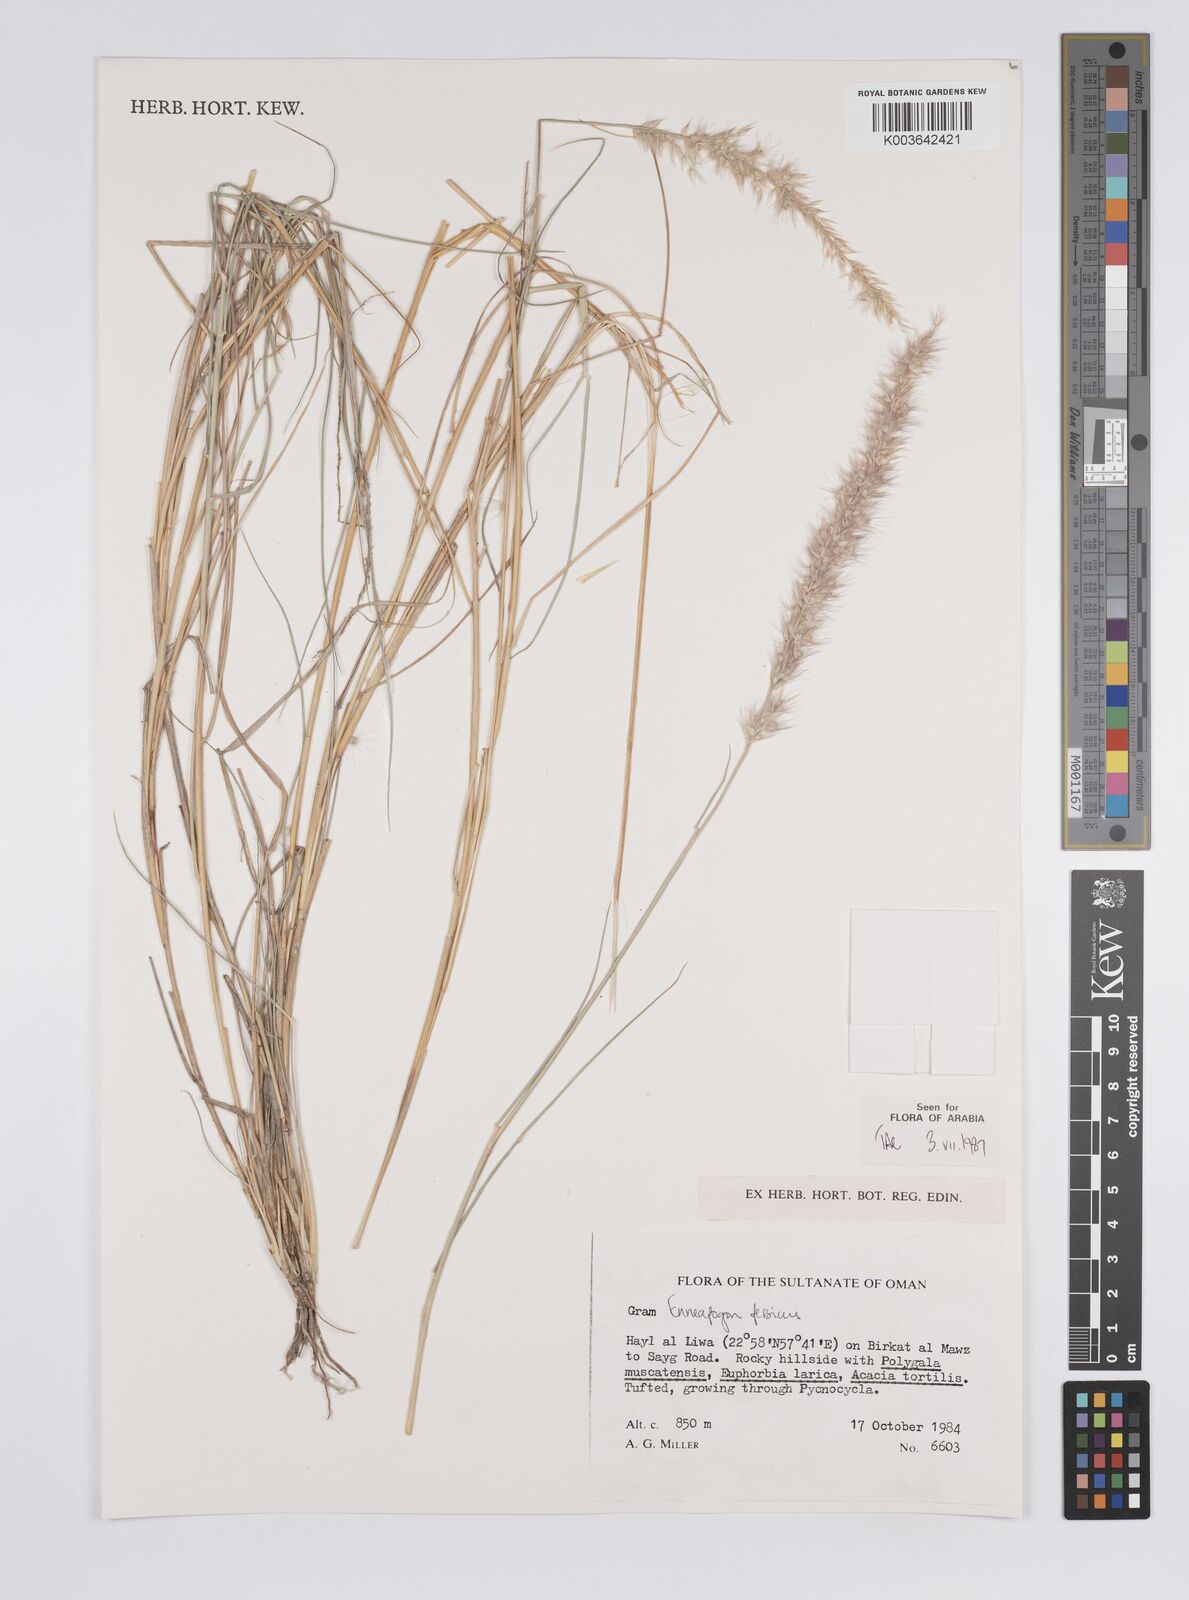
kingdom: Plantae
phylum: Tracheophyta
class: Liliopsida
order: Poales
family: Poaceae
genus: Enneapogon
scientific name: Enneapogon persicus
